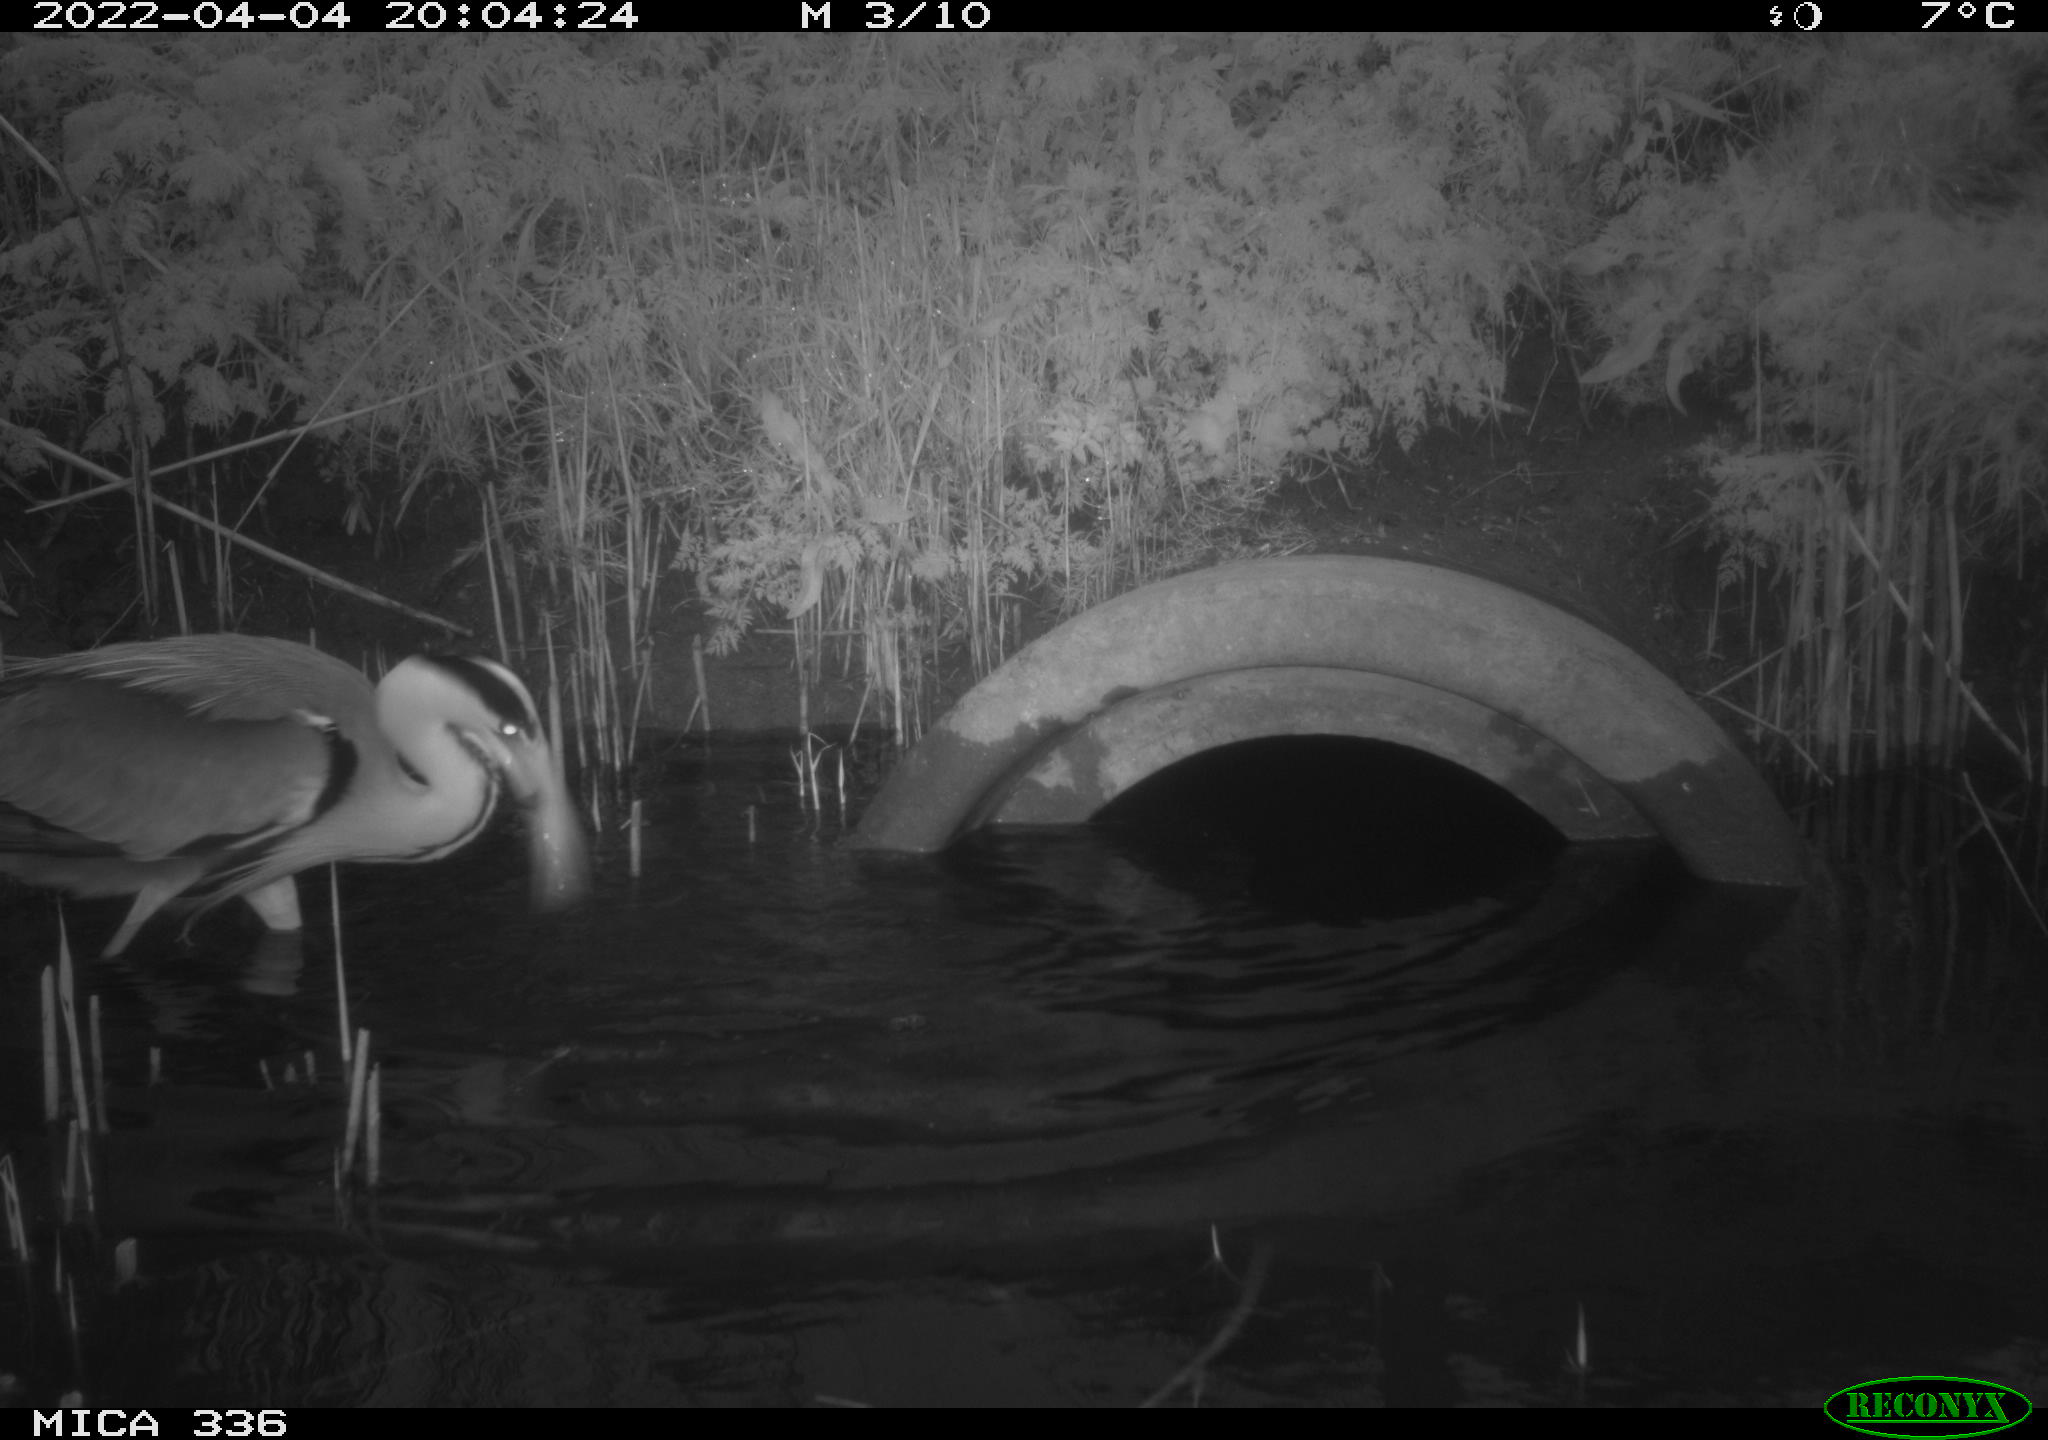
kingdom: Animalia
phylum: Chordata
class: Aves
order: Pelecaniformes
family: Ardeidae
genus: Ardea
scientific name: Ardea
